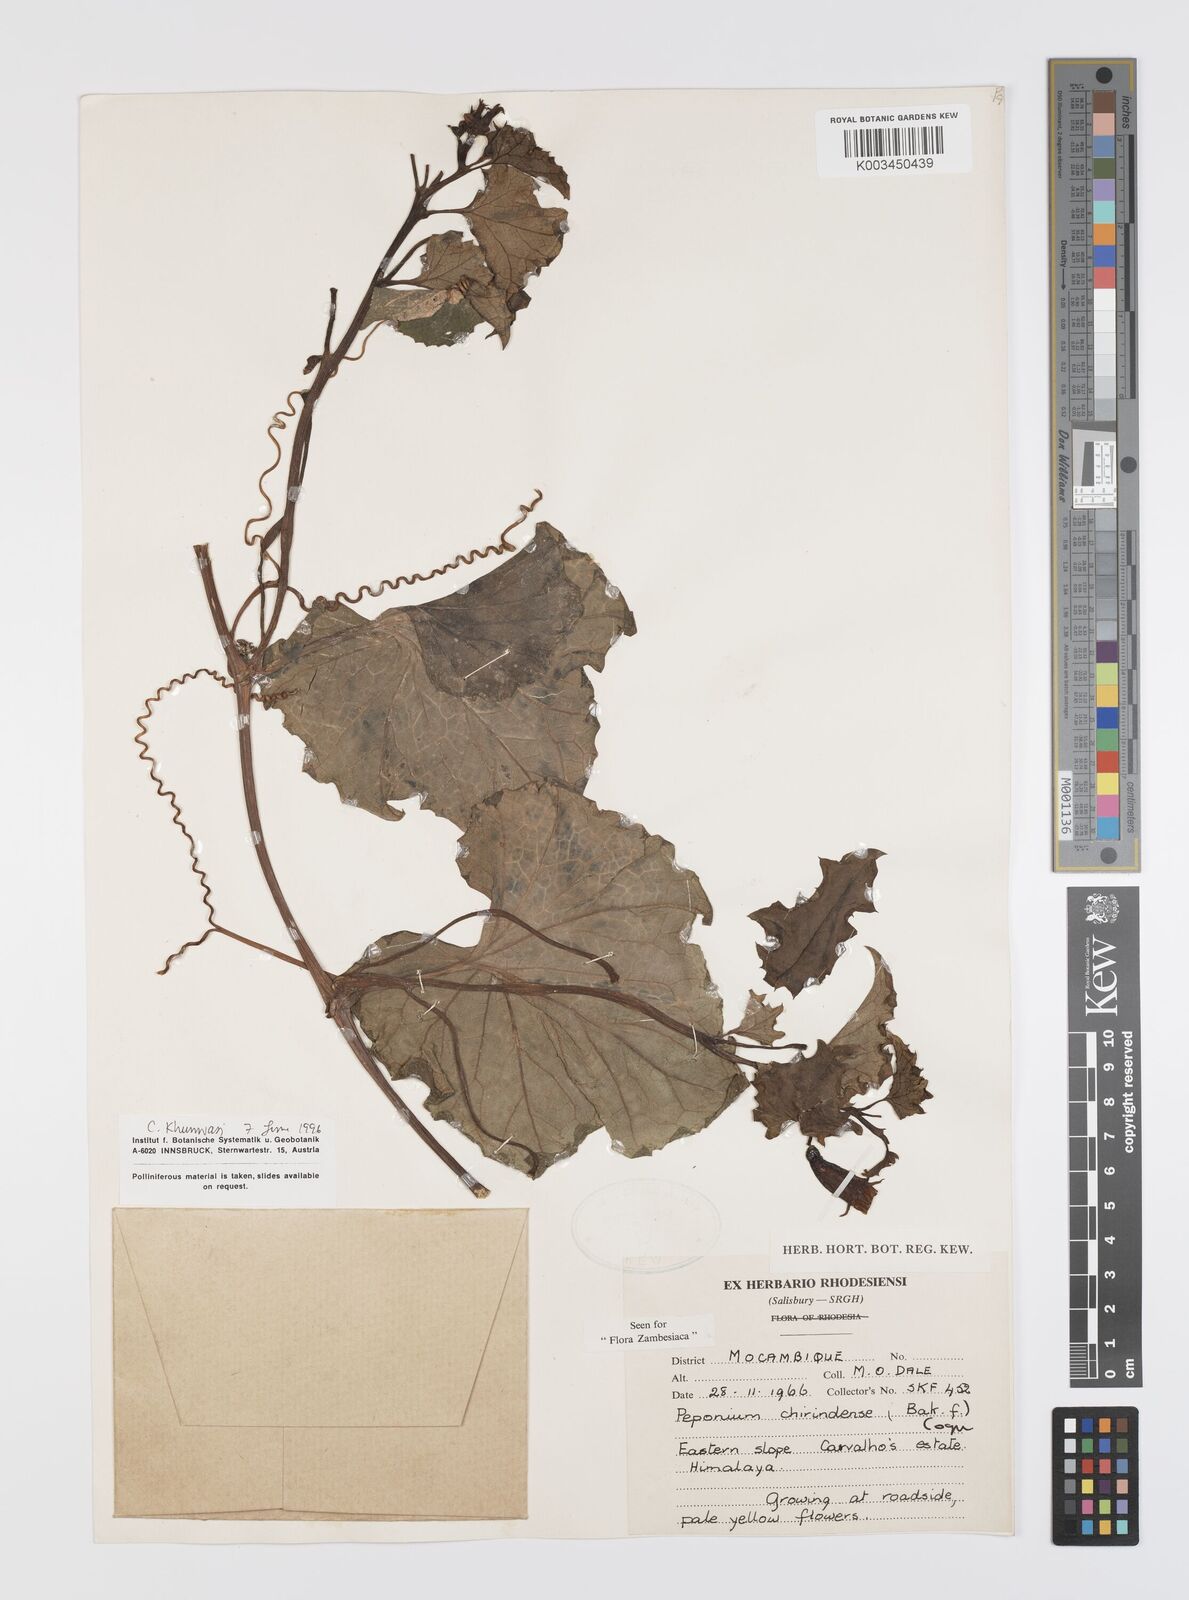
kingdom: Plantae
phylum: Tracheophyta
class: Magnoliopsida
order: Cucurbitales
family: Cucurbitaceae
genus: Peponium
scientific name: Peponium chirindense
